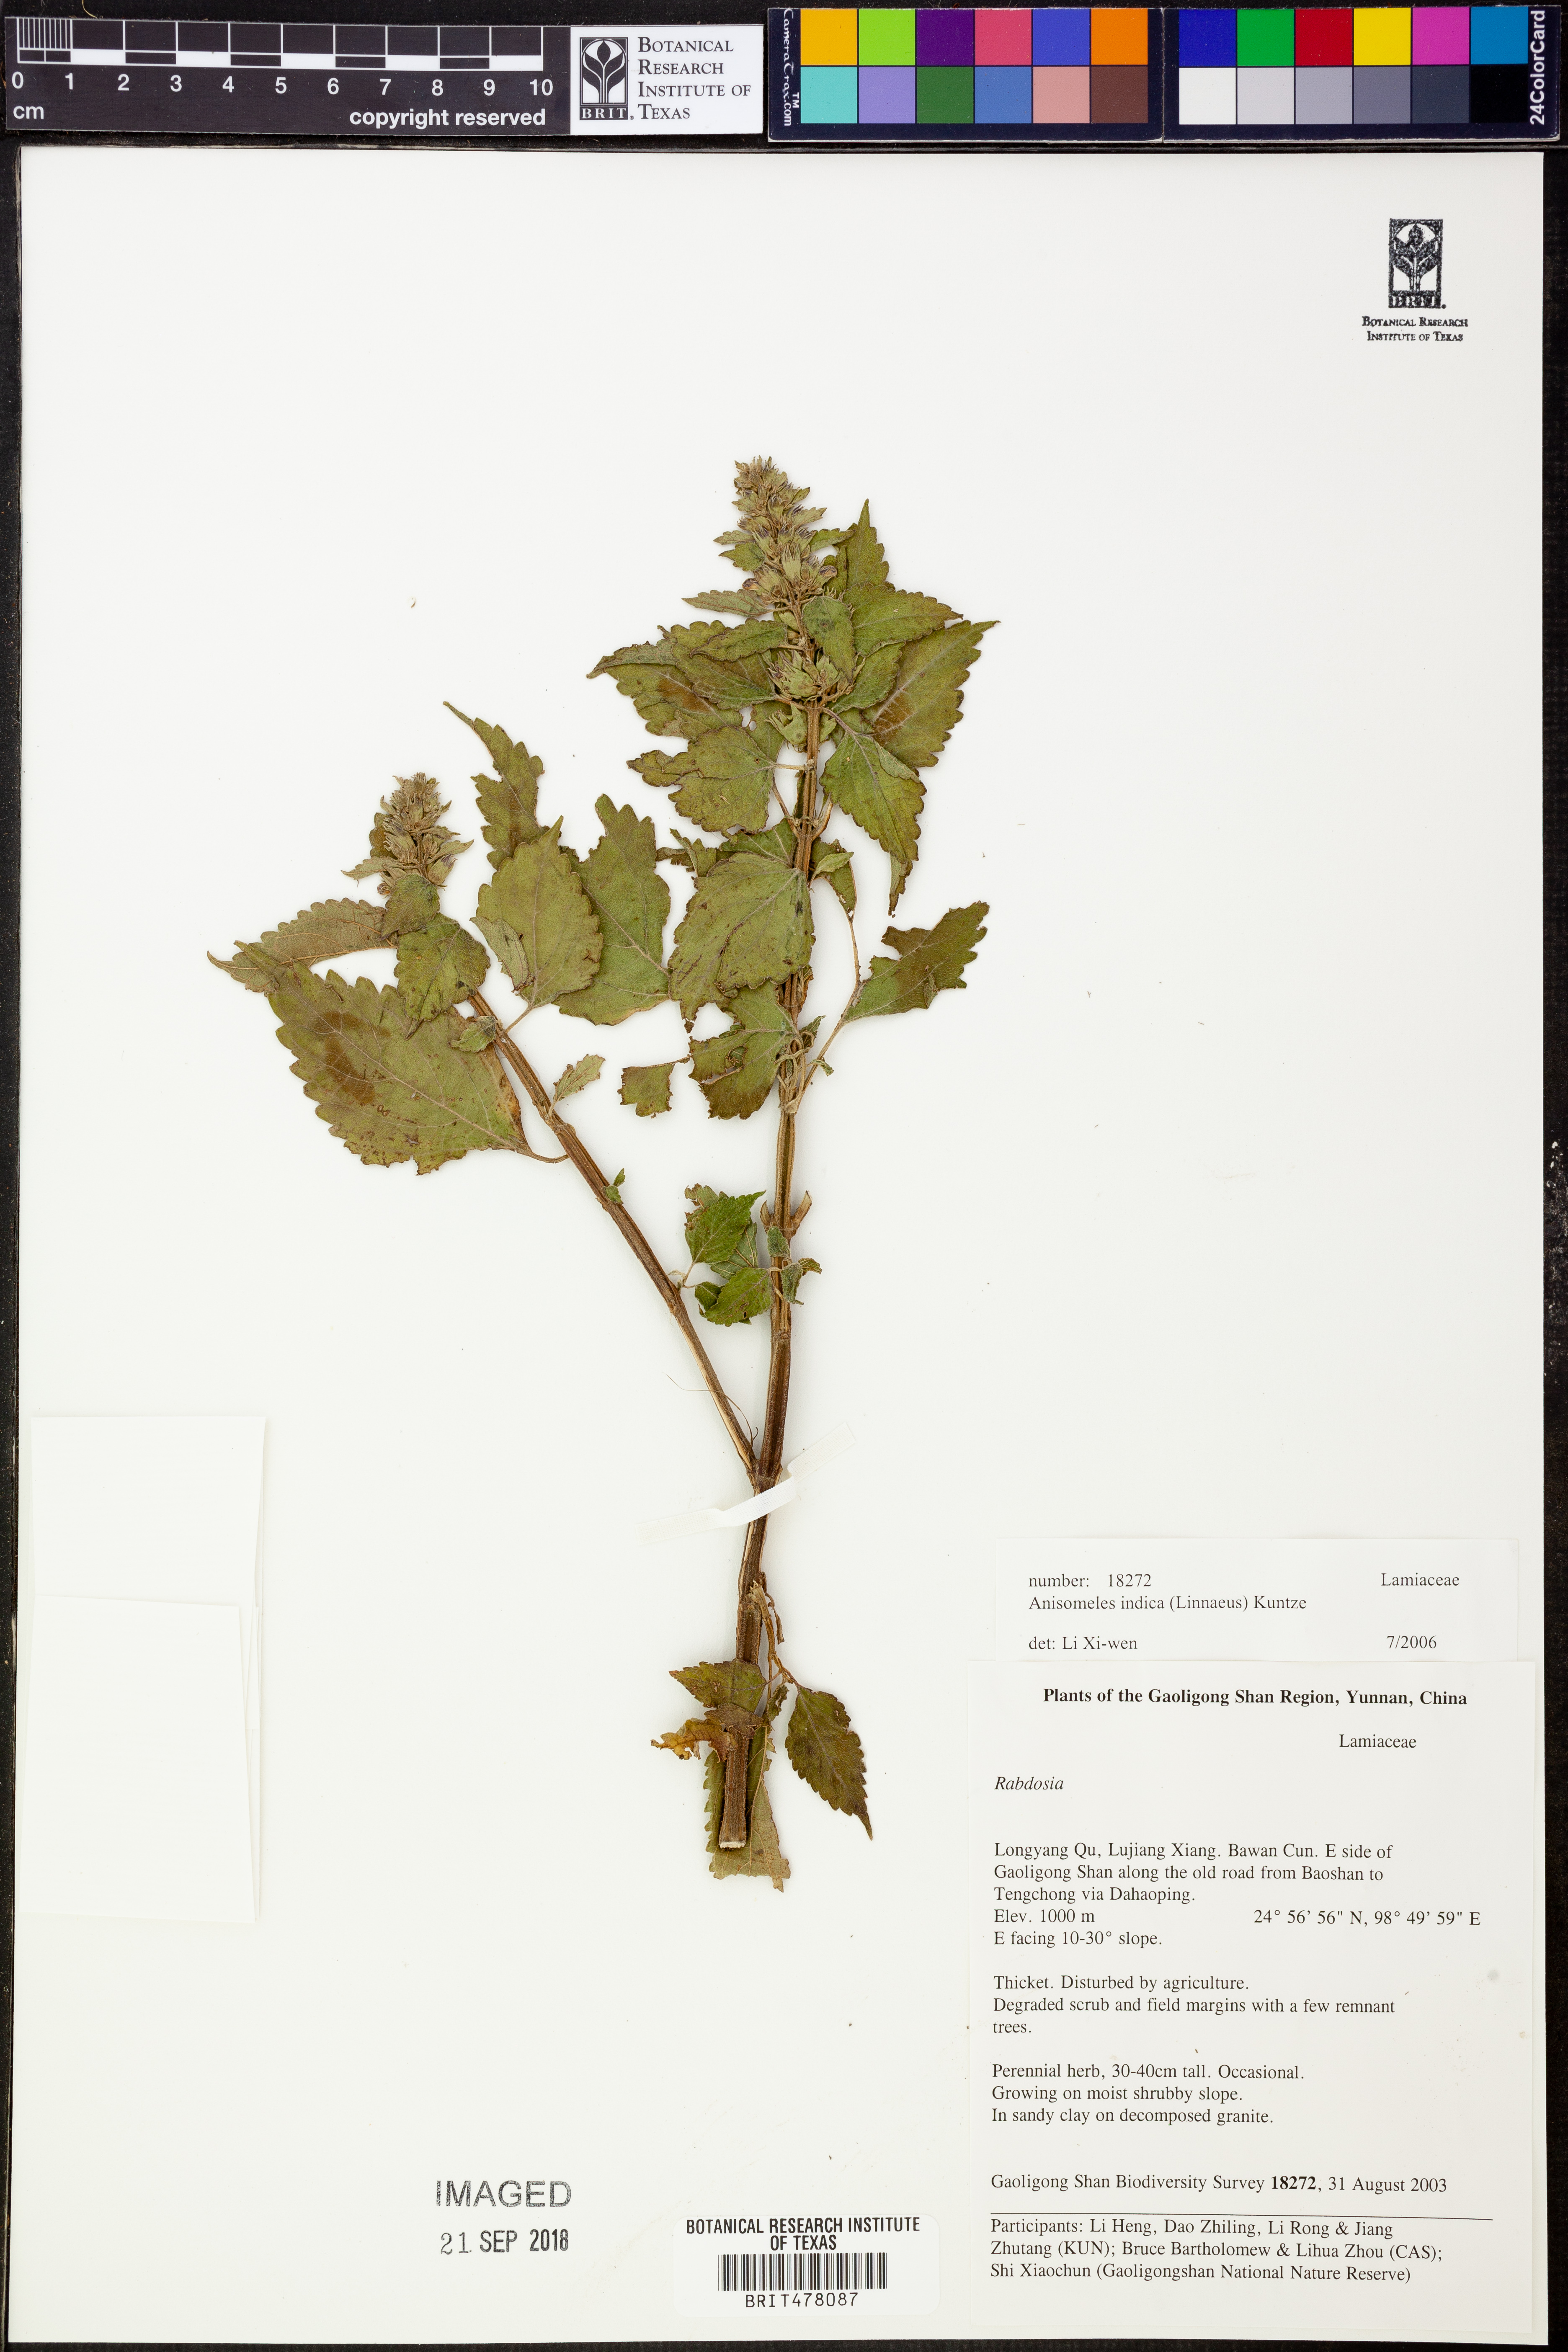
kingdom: Plantae
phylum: Tracheophyta
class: Magnoliopsida
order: Lamiales
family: Lamiaceae
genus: Anisomeles
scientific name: Anisomeles indica
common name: Catmint
